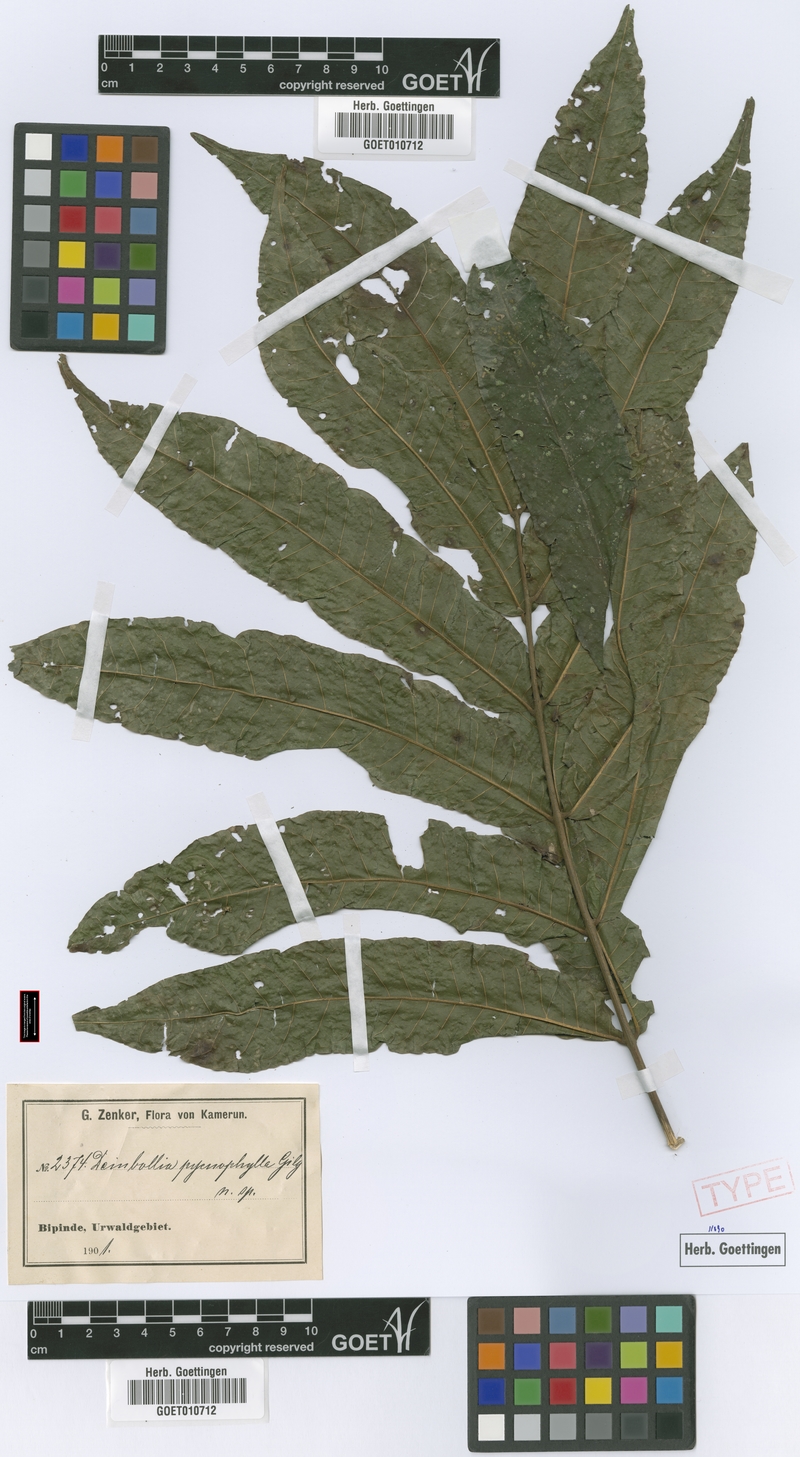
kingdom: Plantae
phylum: Tracheophyta
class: Magnoliopsida
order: Sapindales
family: Sapindaceae
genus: Deinbollia
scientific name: Deinbollia pycnophylla
